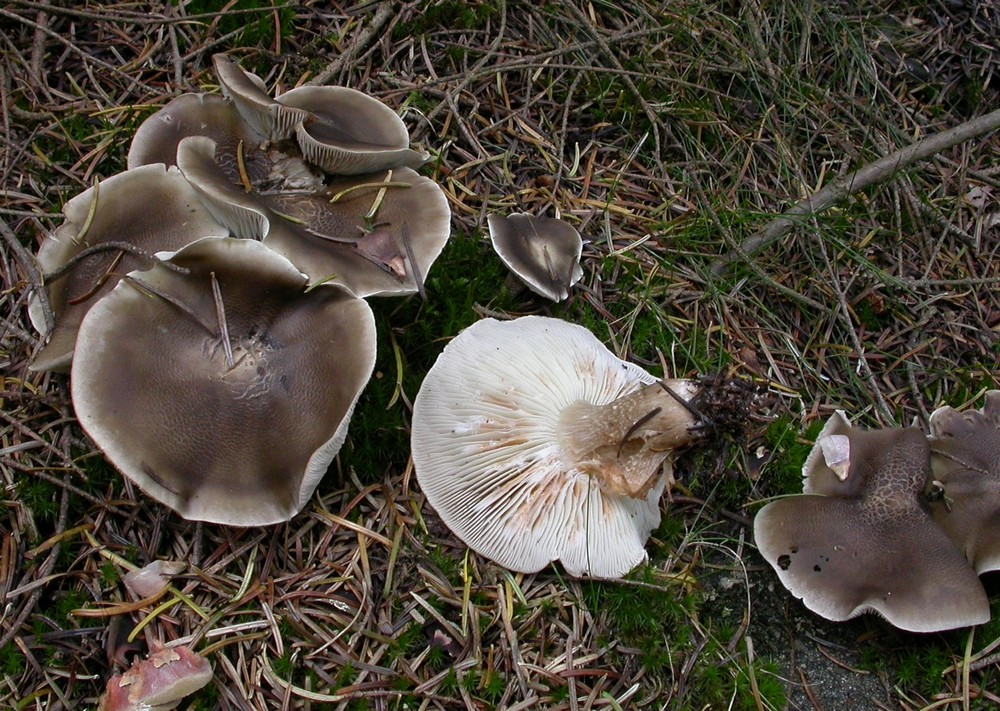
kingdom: Fungi
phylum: Basidiomycota
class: Agaricomycetes
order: Agaricales
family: Tricholomataceae
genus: Tricholoma
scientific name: Tricholoma sudum
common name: tør ridderhat
